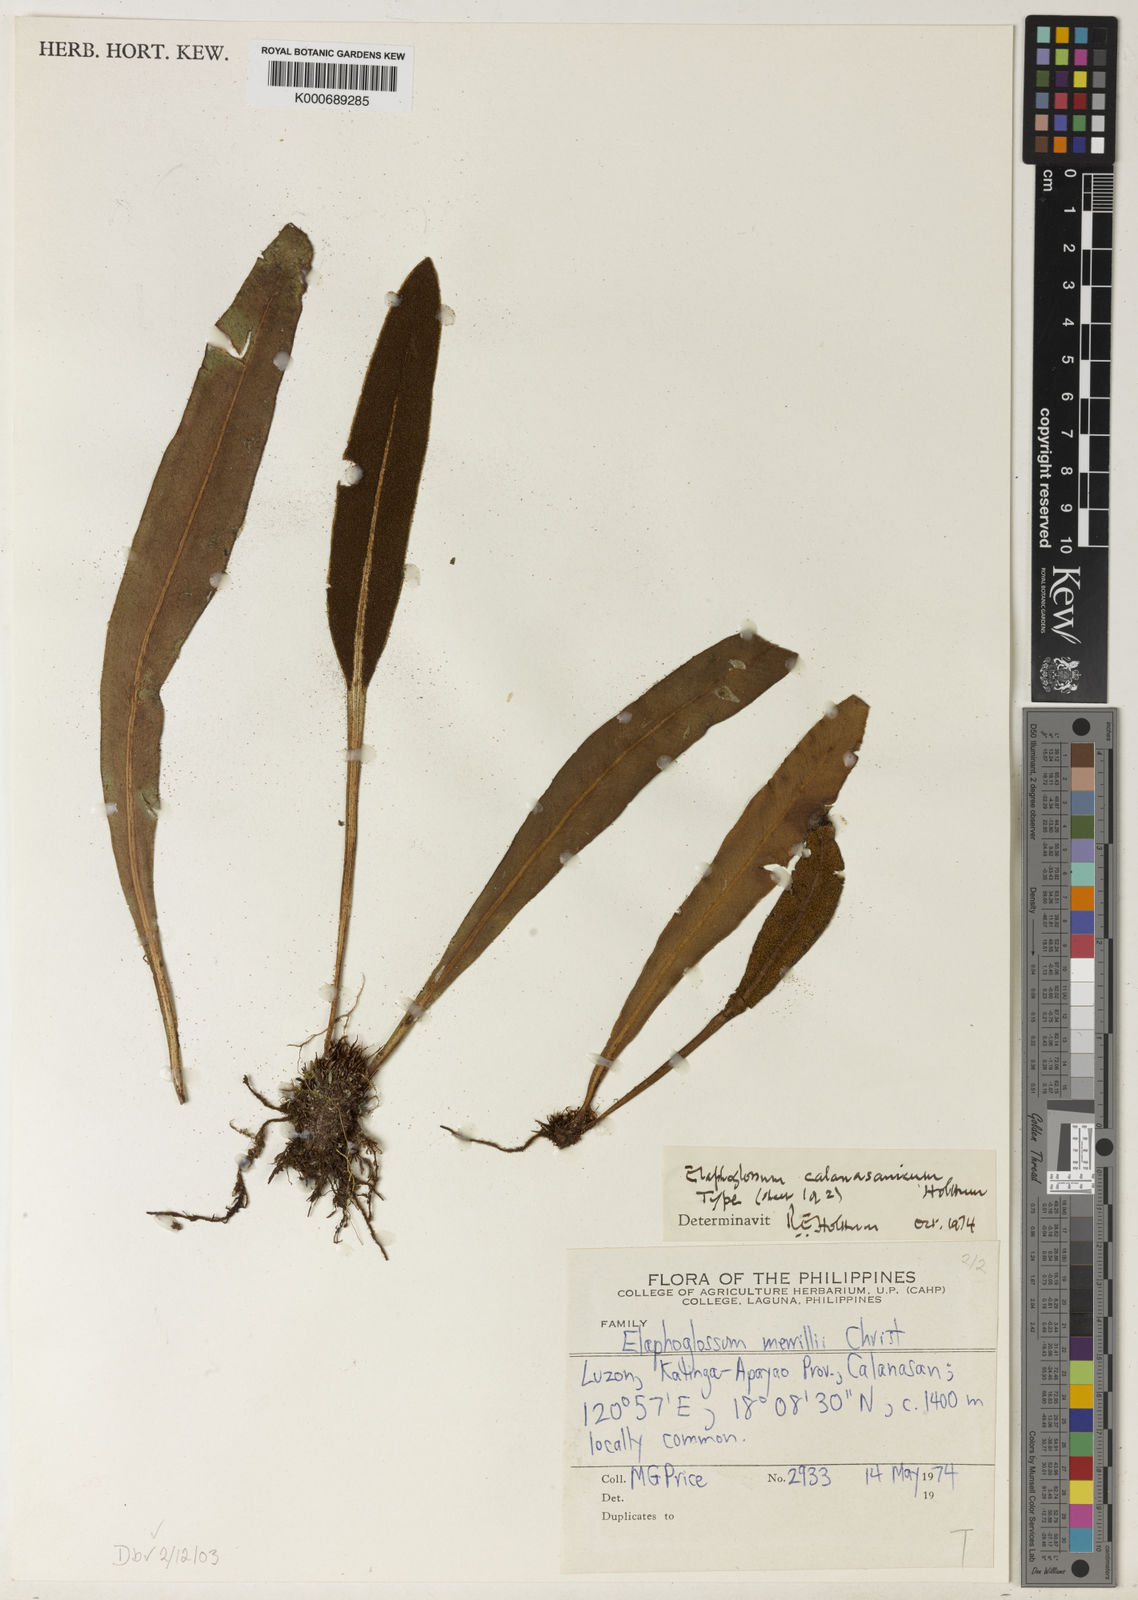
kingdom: Plantae
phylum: Tracheophyta
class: Polypodiopsida
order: Polypodiales
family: Dryopteridaceae
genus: Elaphoglossum
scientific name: Elaphoglossum calanasanicum
